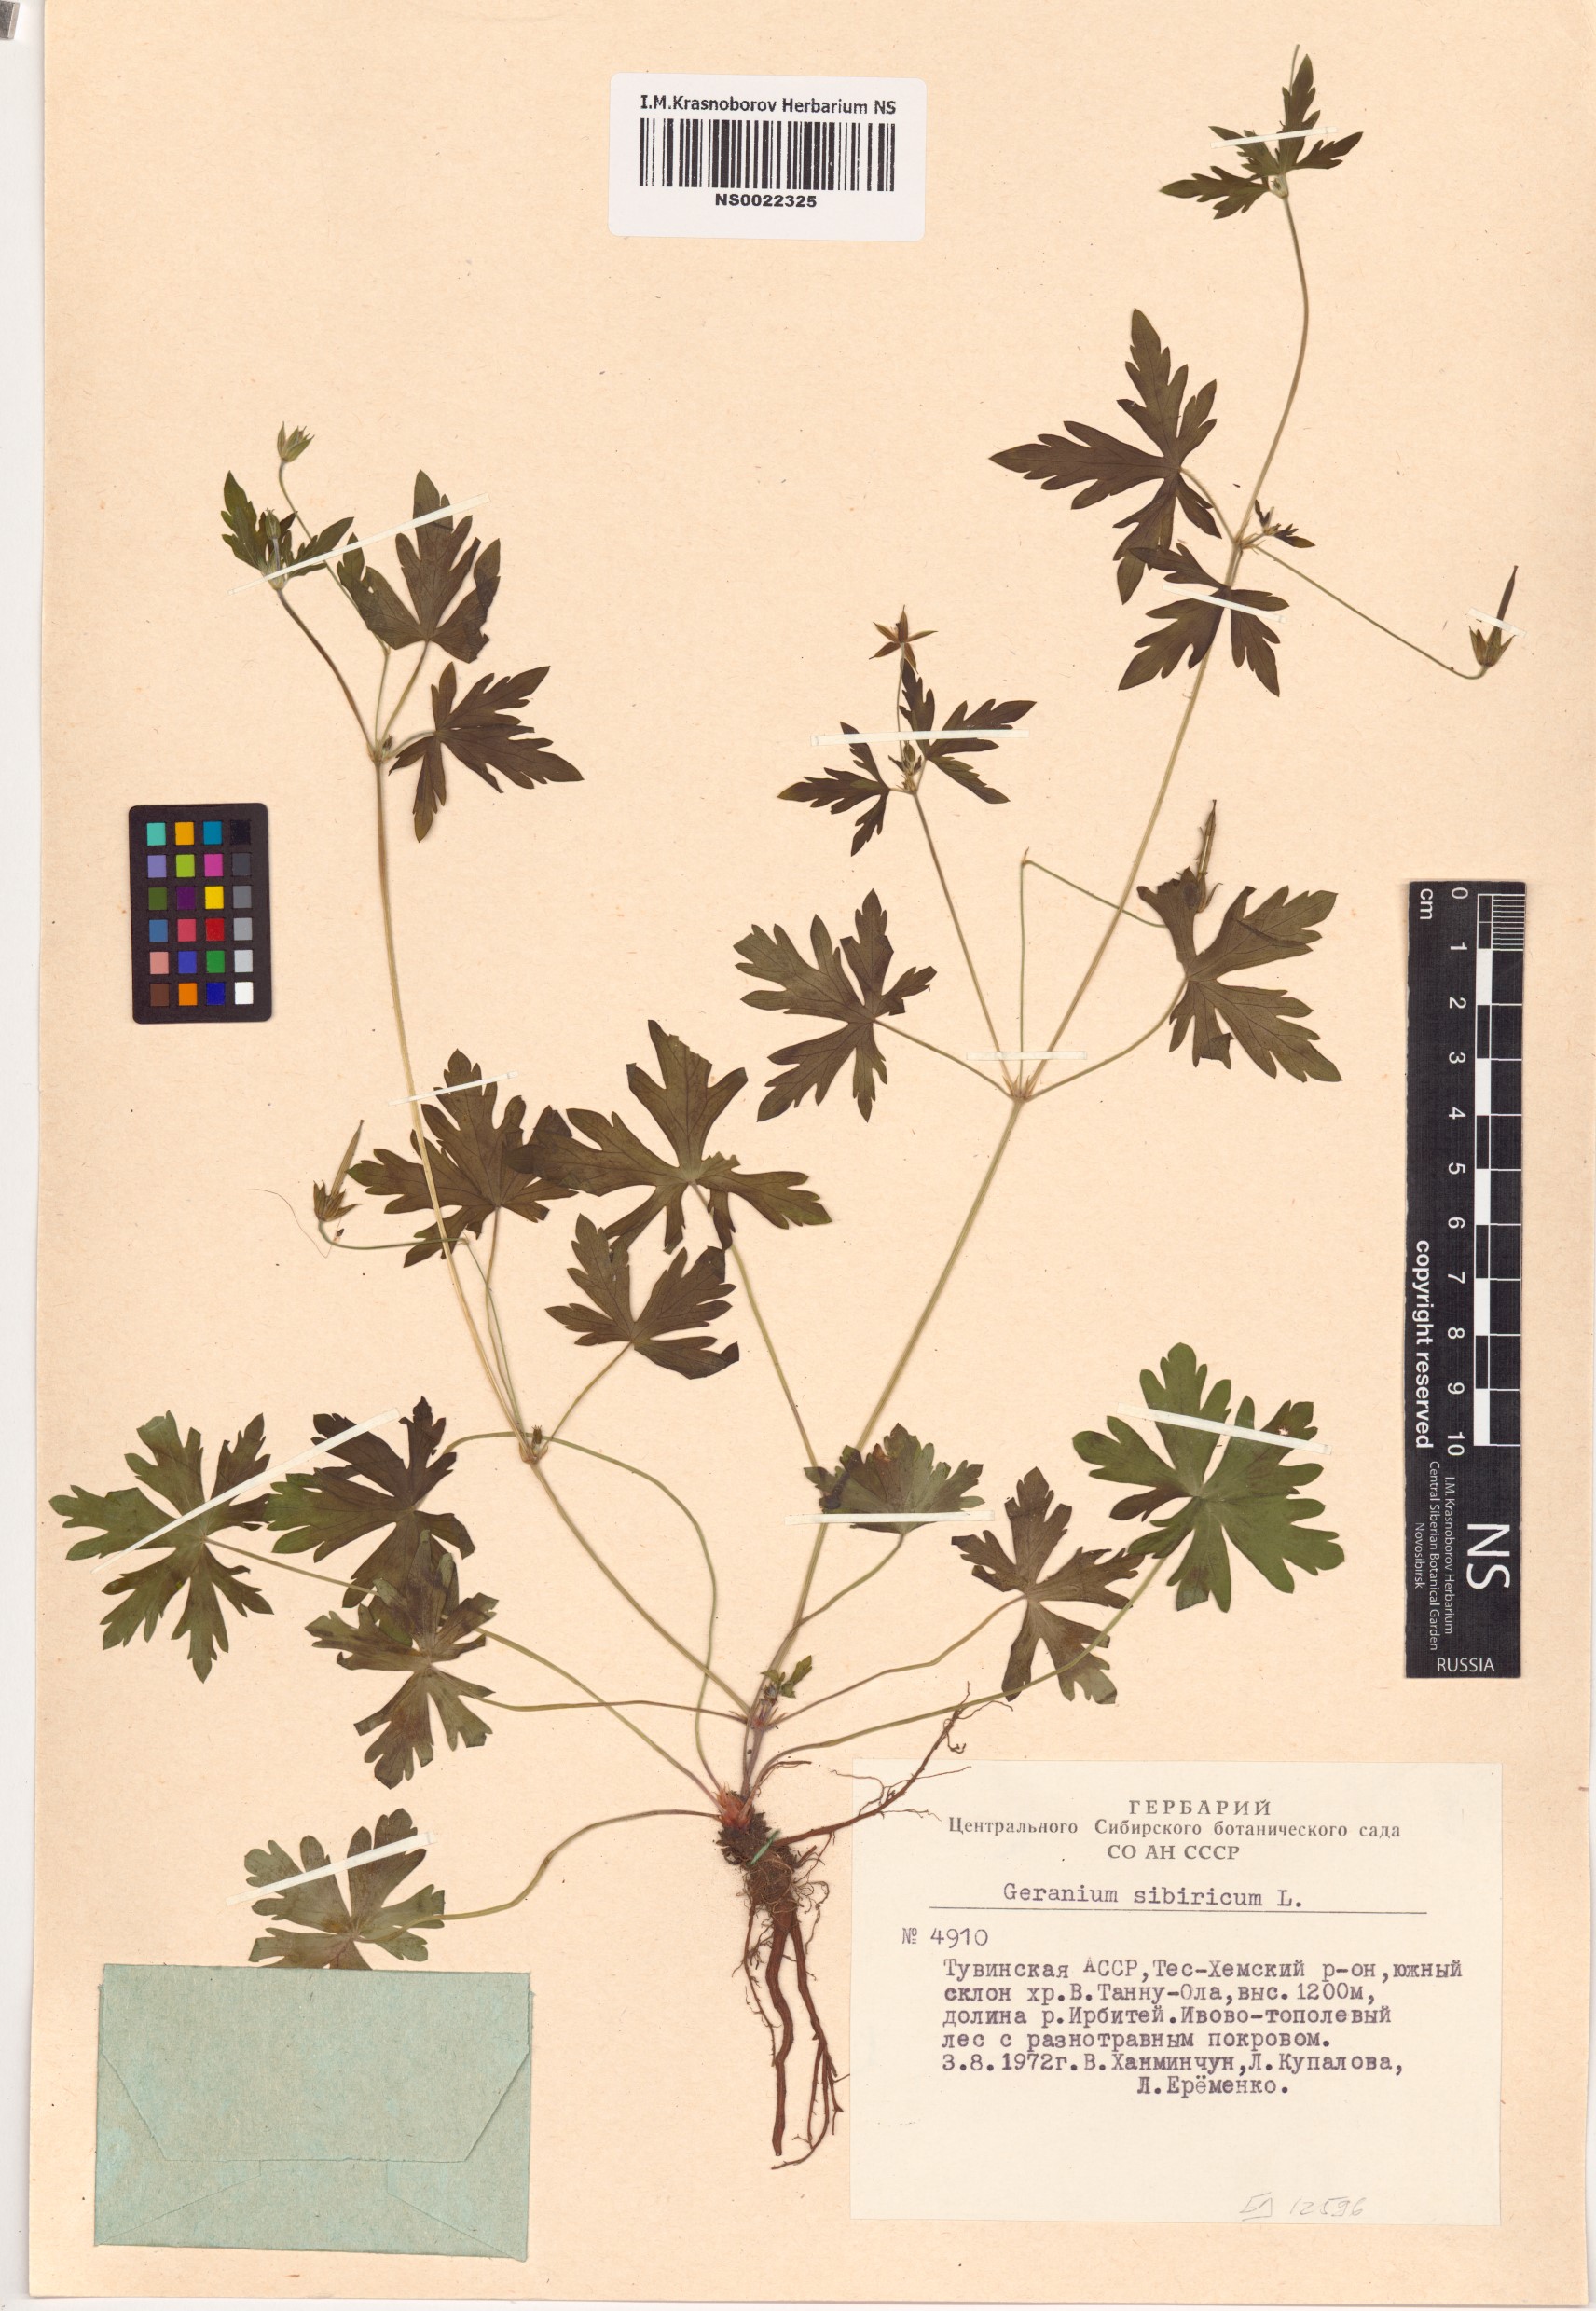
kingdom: Plantae
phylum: Tracheophyta
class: Magnoliopsida
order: Geraniales
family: Geraniaceae
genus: Geranium
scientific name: Geranium sibiricum
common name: Siberian crane's-bill
